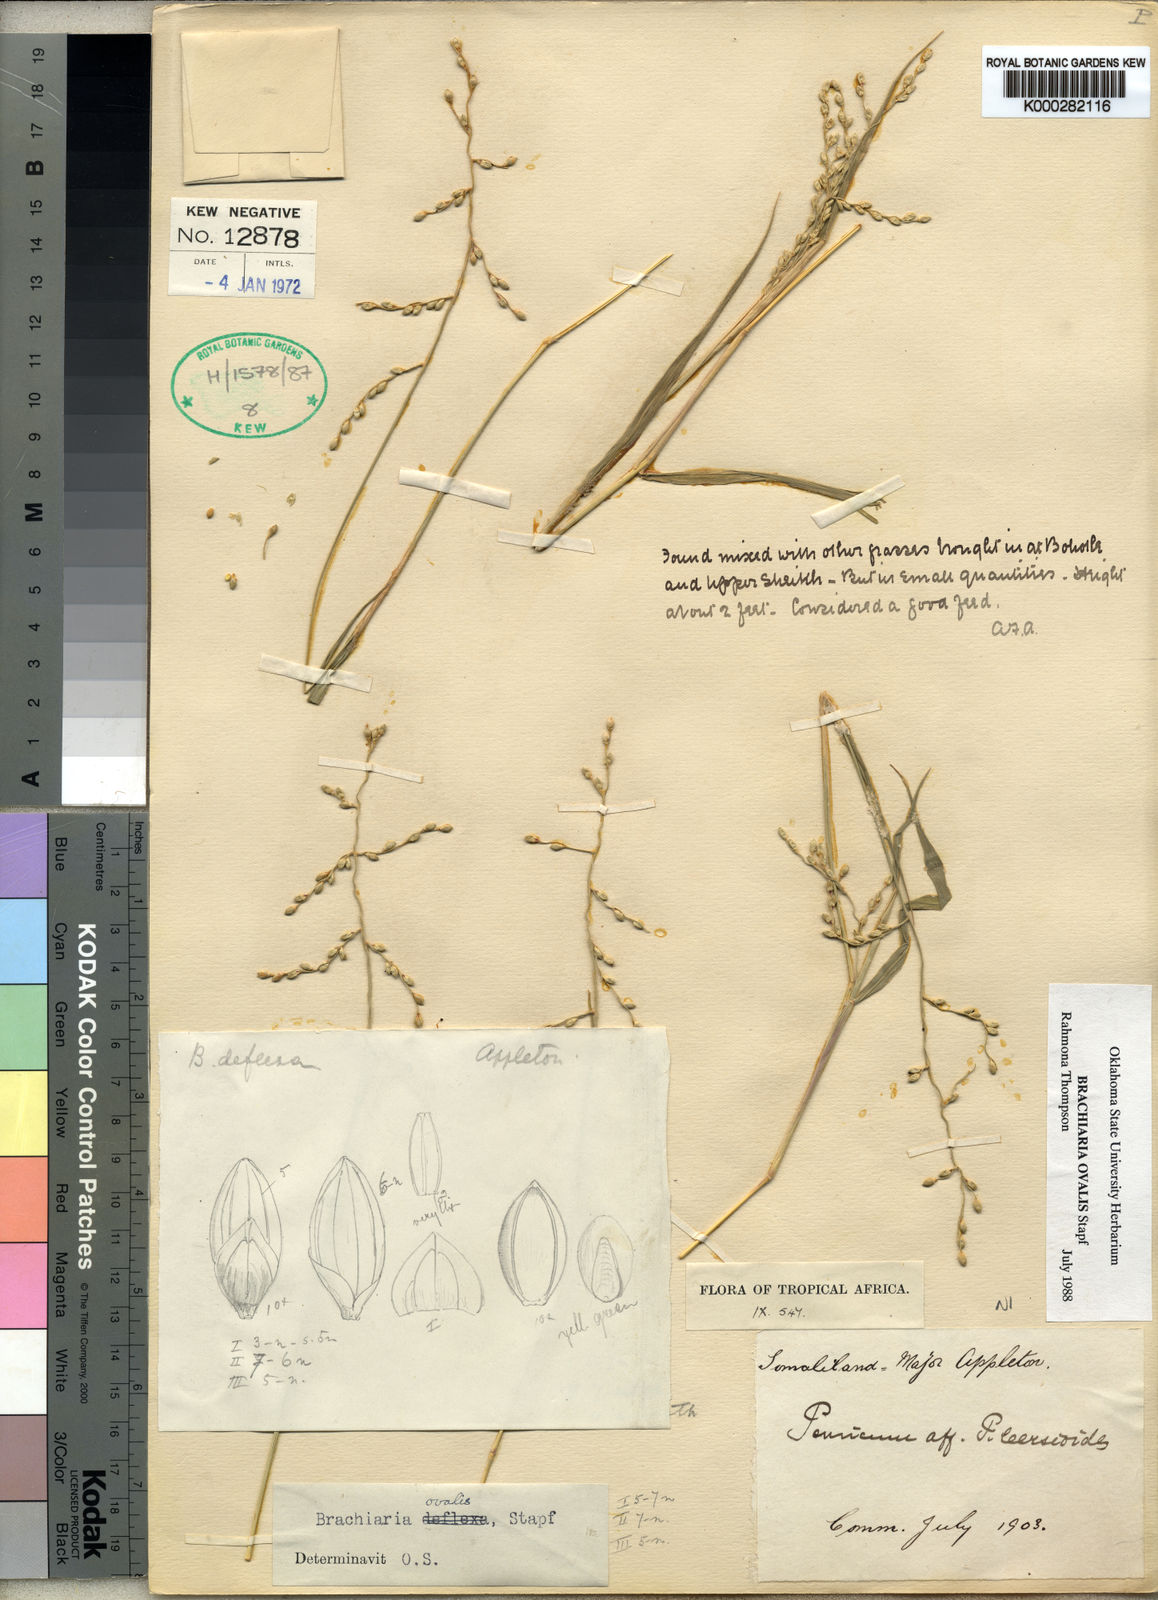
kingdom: Plantae
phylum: Tracheophyta
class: Liliopsida
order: Poales
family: Poaceae
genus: Urochloa
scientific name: Urochloa ovalis
